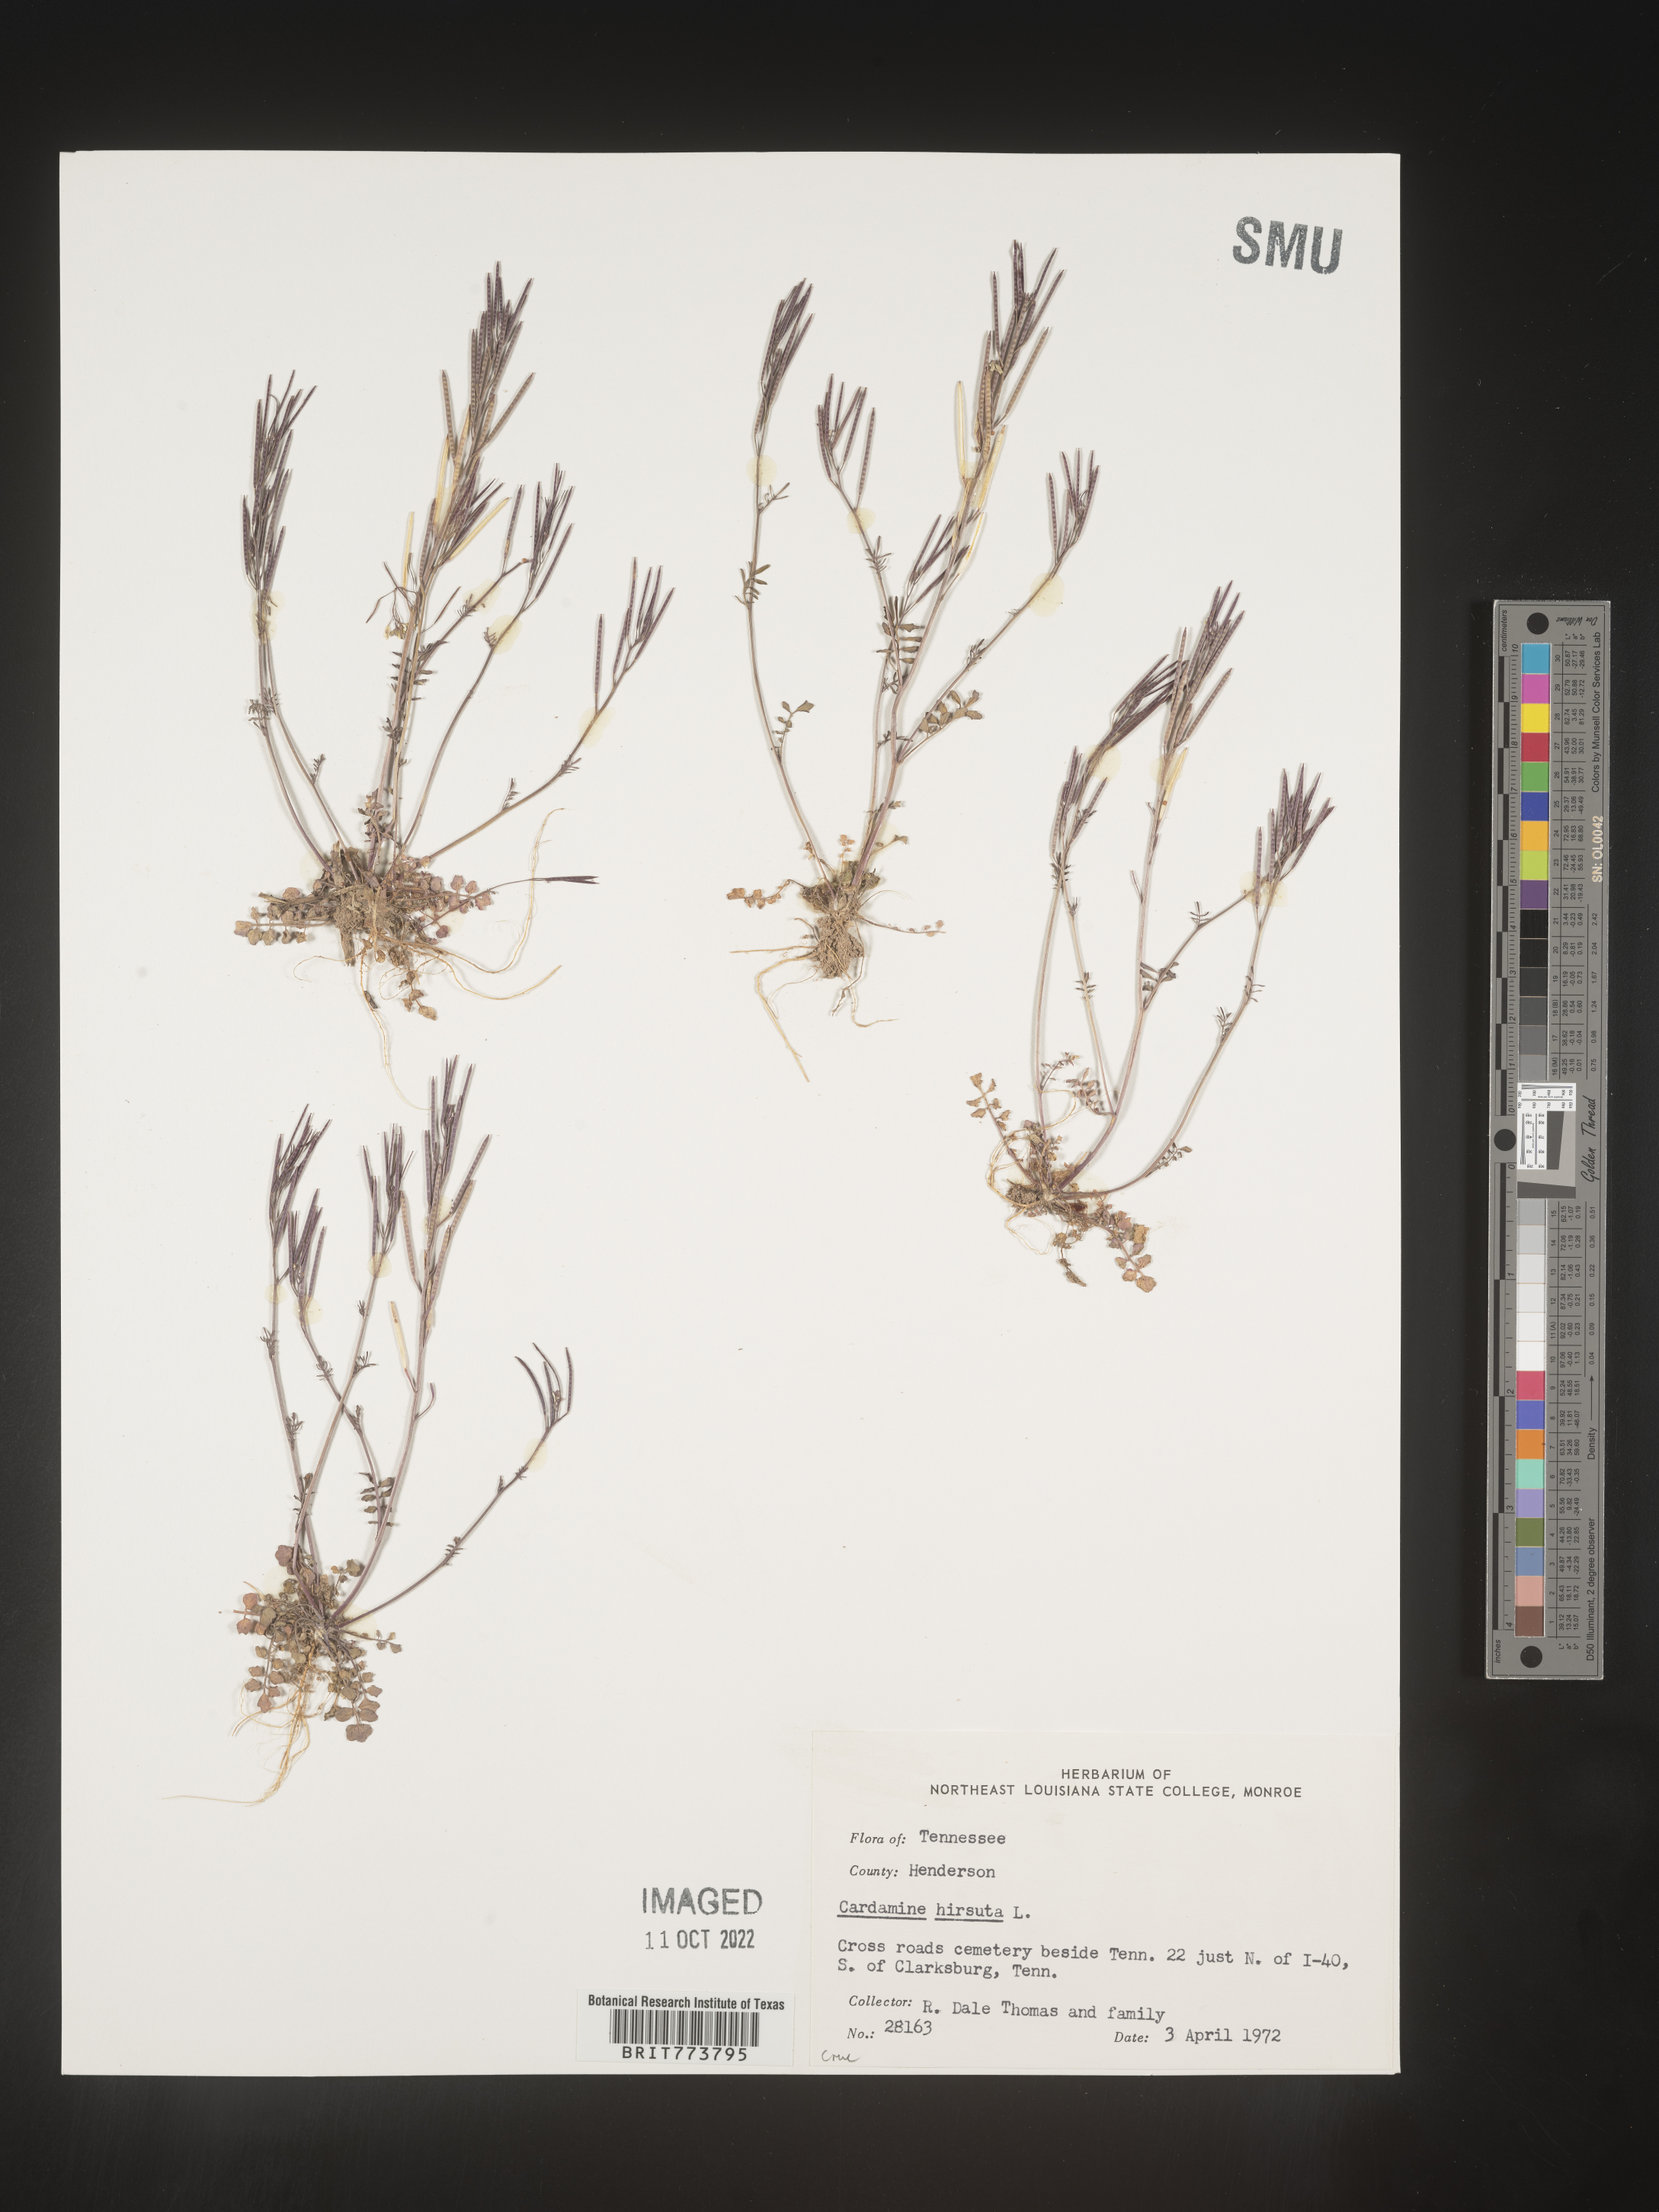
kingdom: Plantae
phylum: Tracheophyta
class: Magnoliopsida
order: Brassicales
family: Brassicaceae
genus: Cardamine
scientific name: Cardamine hirsuta
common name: Hairy bittercress
